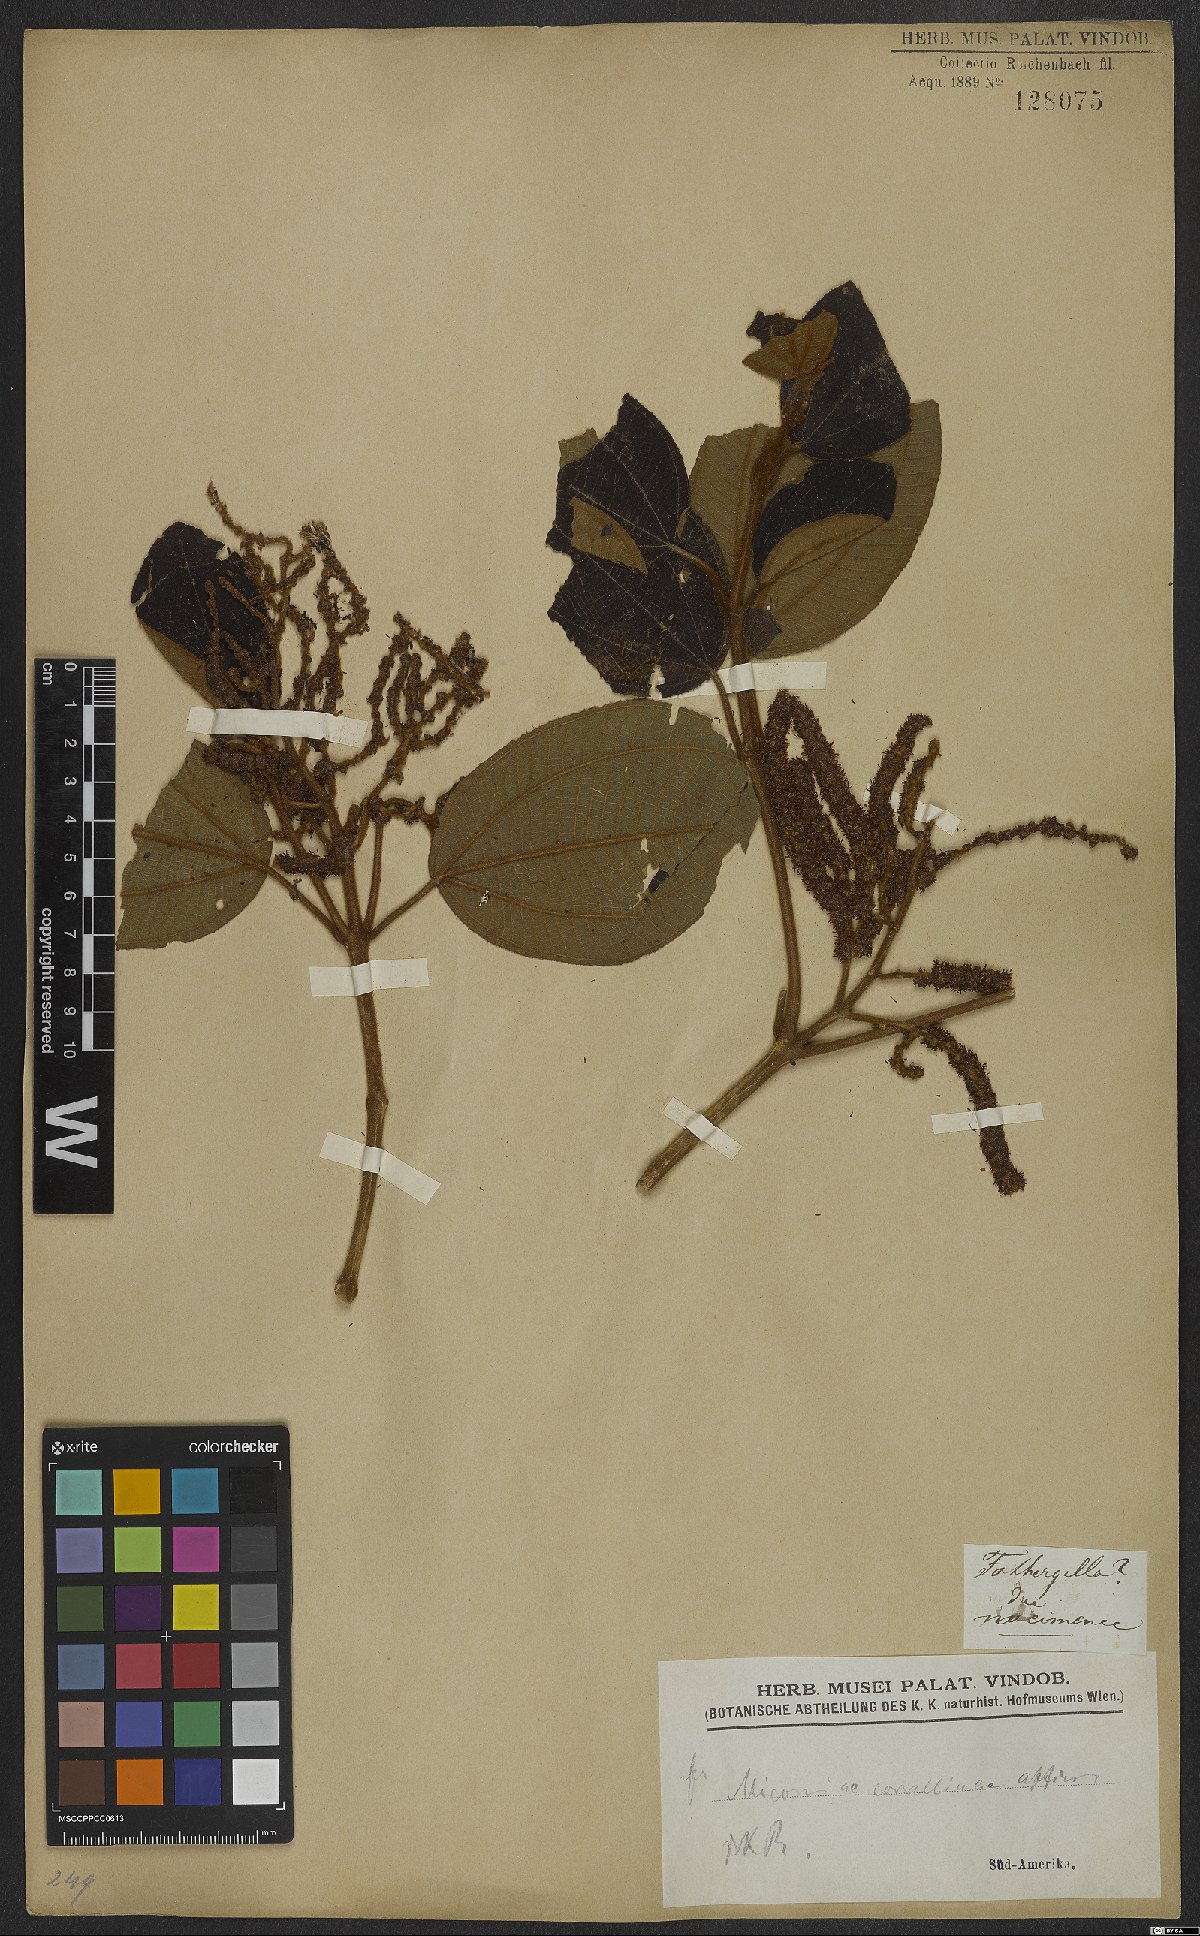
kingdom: Plantae
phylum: Tracheophyta
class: Magnoliopsida
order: Myrtales
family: Melastomataceae
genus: Miconia
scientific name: Miconia corallina
